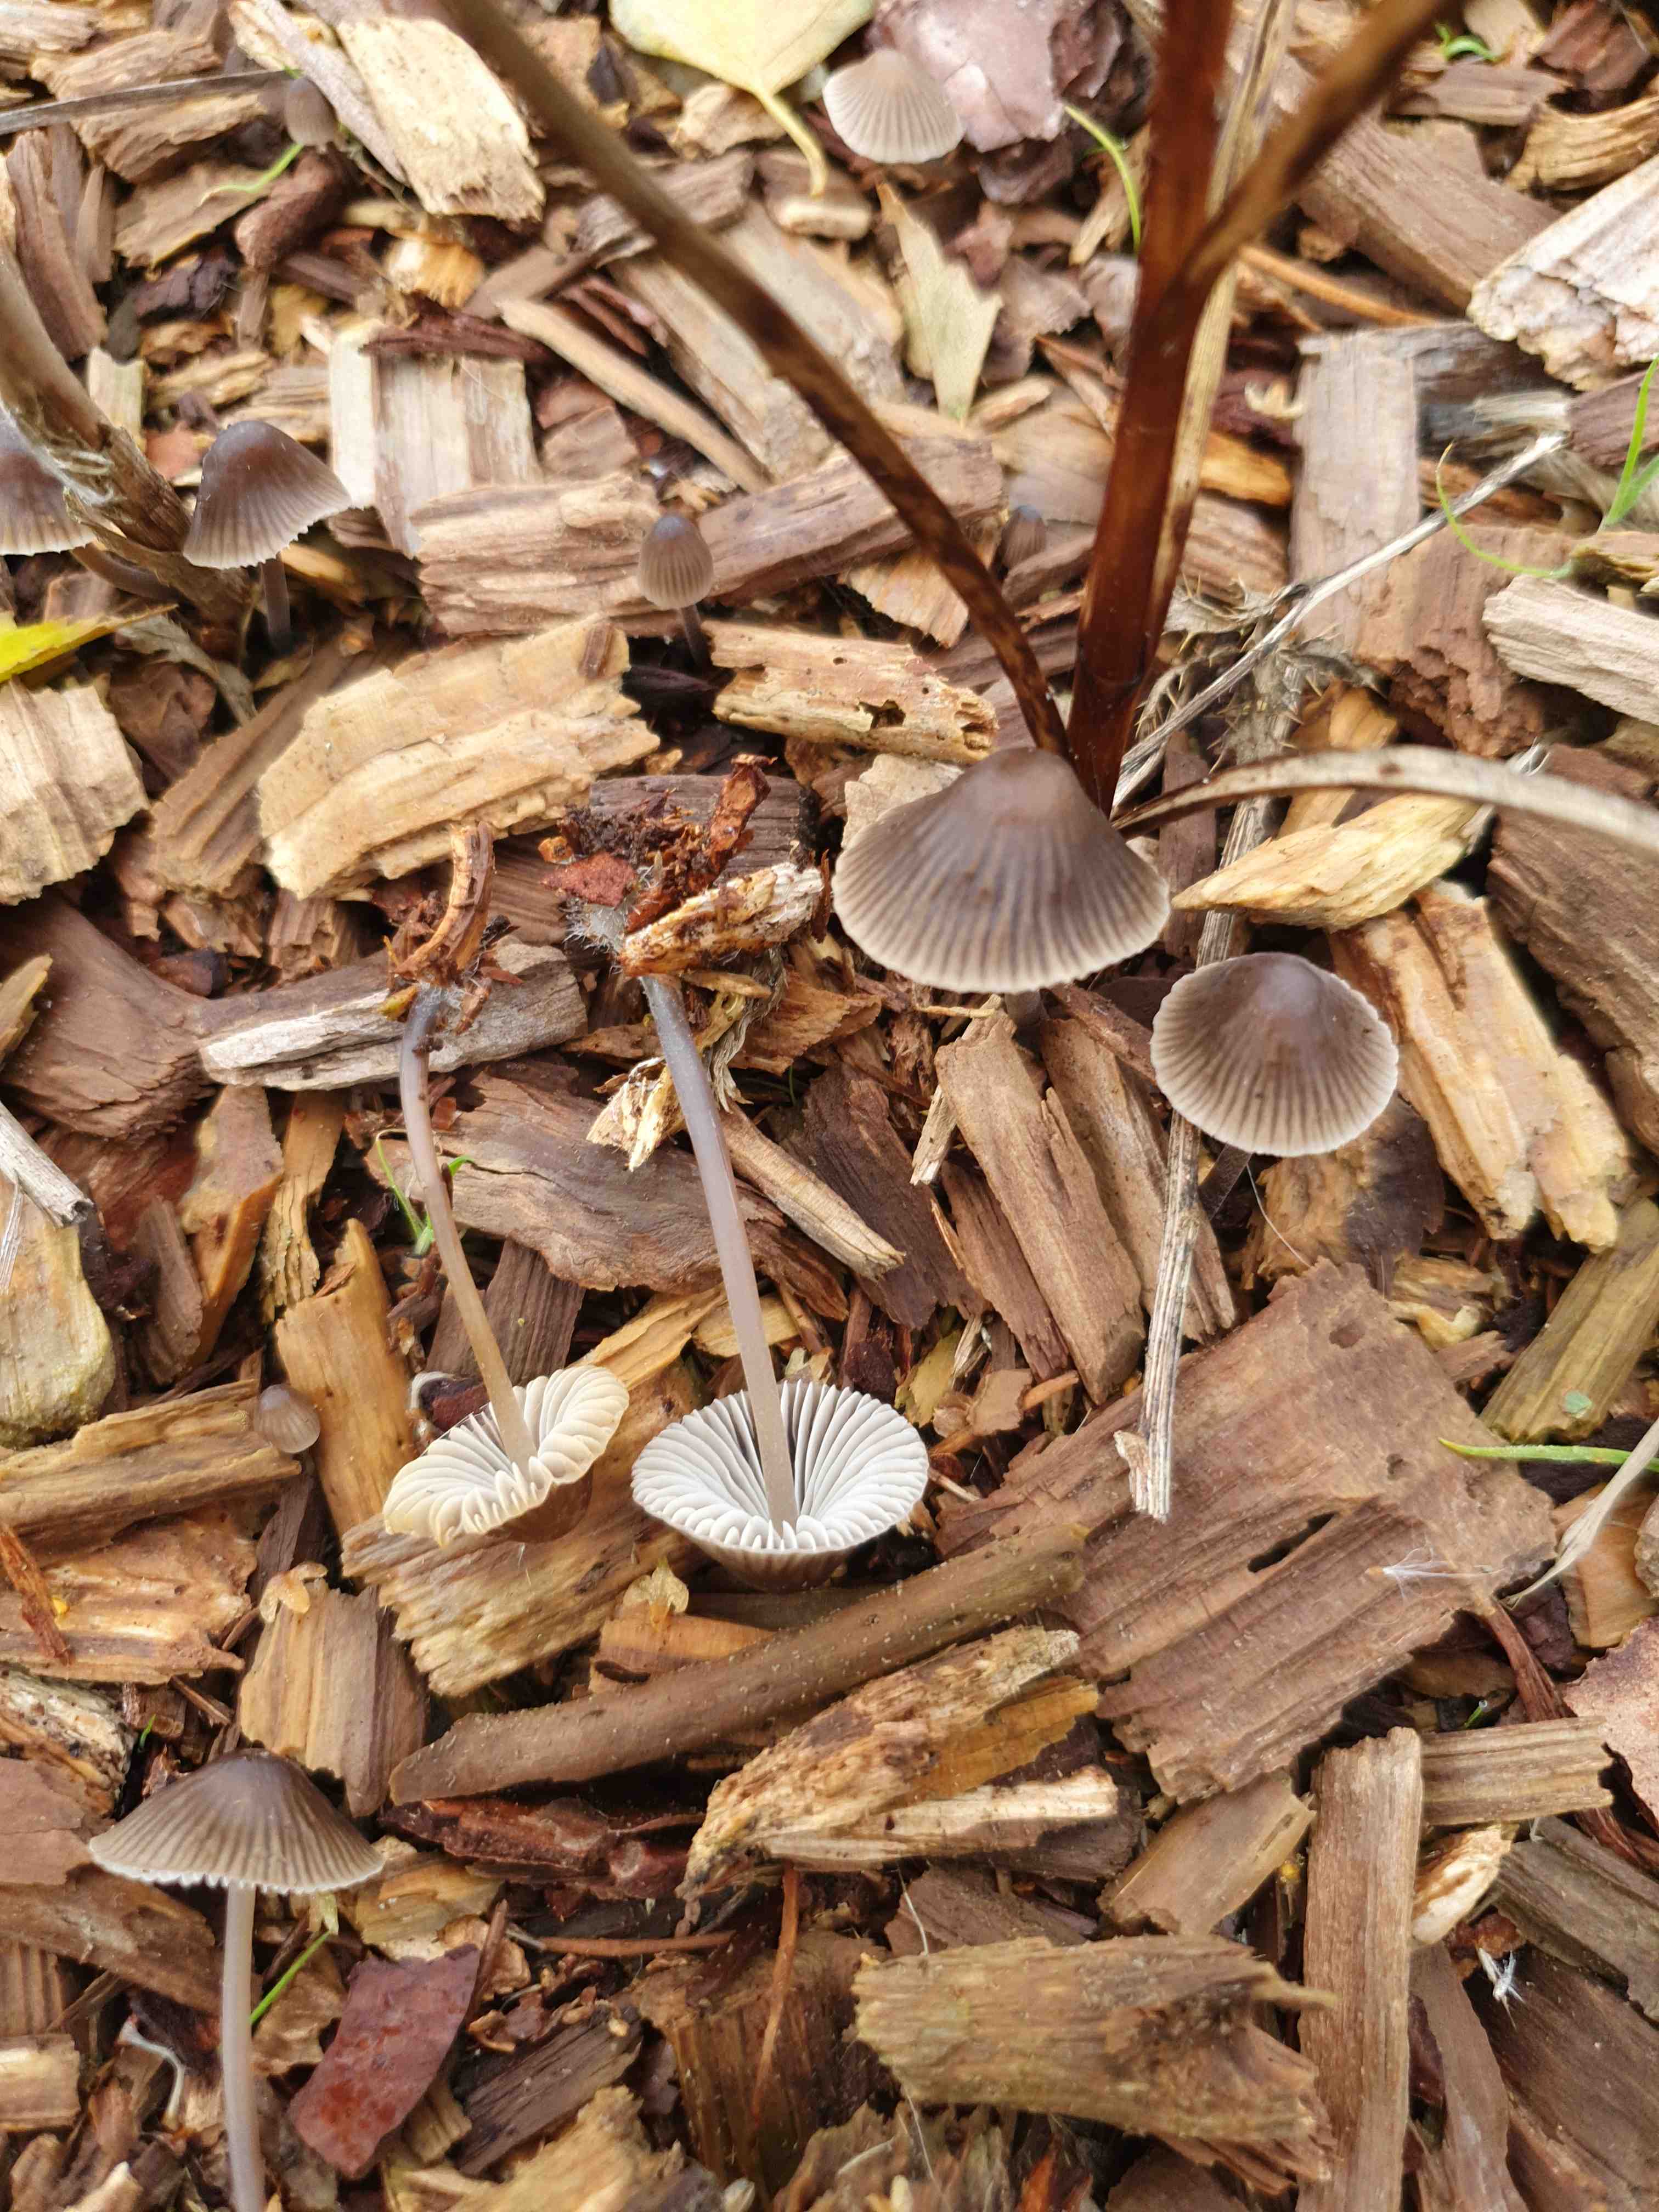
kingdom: Fungi
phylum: Basidiomycota
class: Agaricomycetes
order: Agaricales
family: Mycenaceae
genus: Mycena
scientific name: Mycena leptocephala
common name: klor-huesvamp
